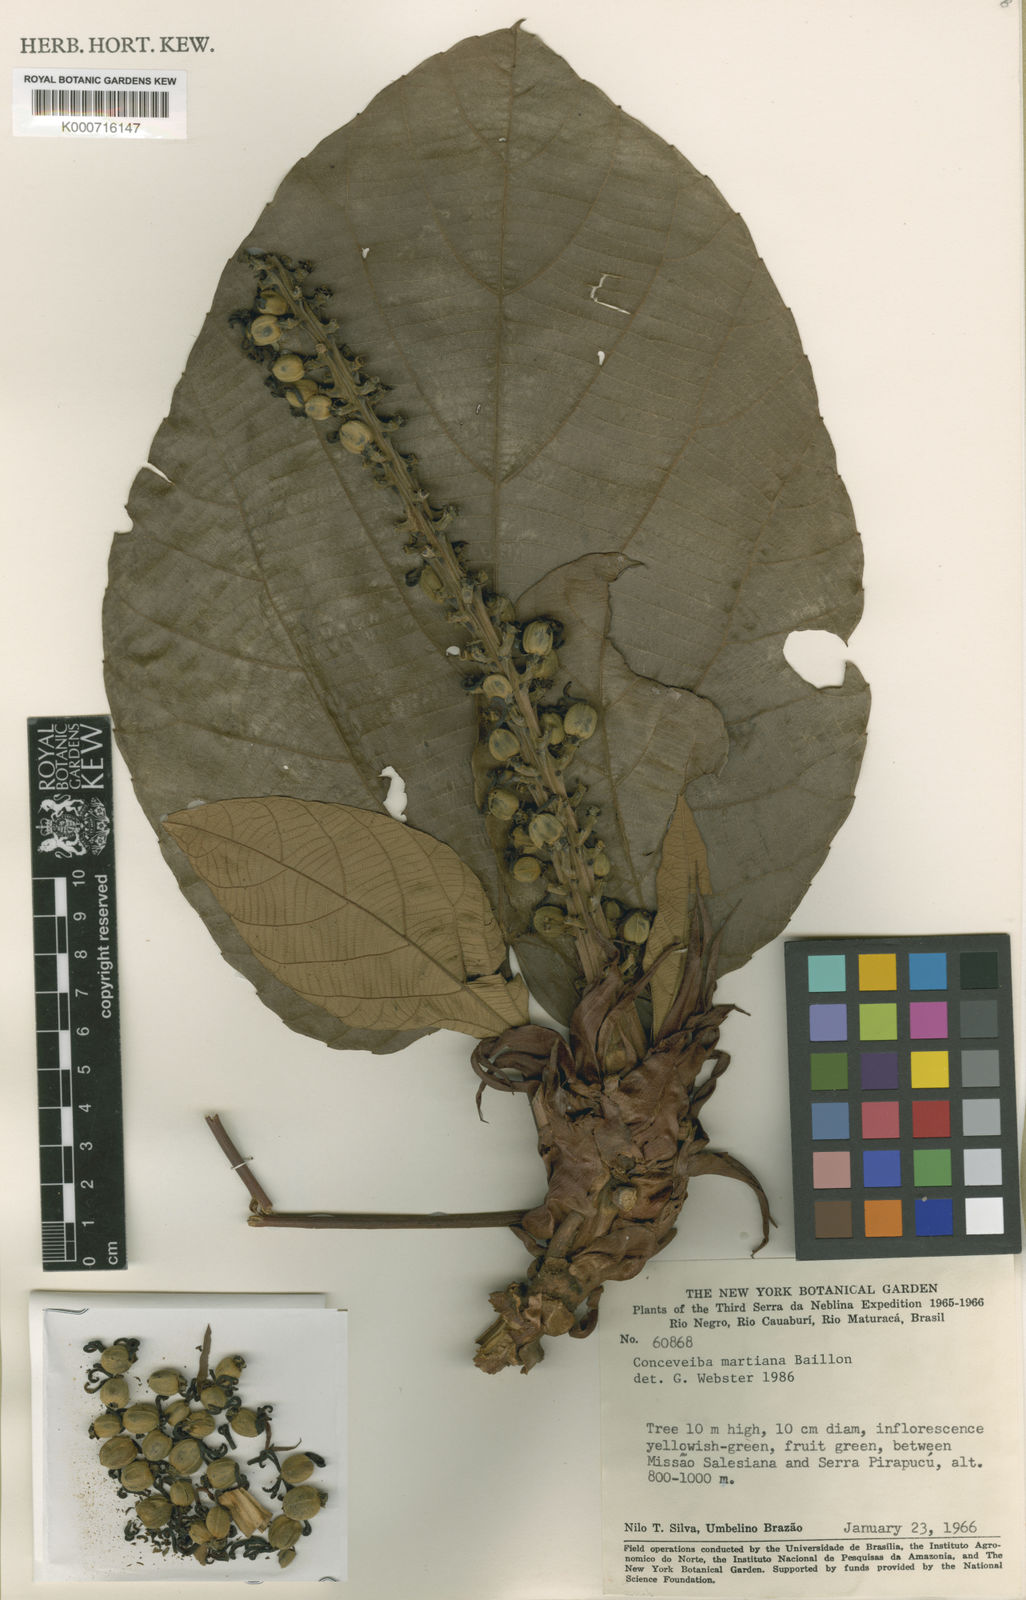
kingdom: Plantae
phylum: Tracheophyta
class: Magnoliopsida
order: Malpighiales
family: Euphorbiaceae
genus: Conceveiba
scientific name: Conceveiba martiana
